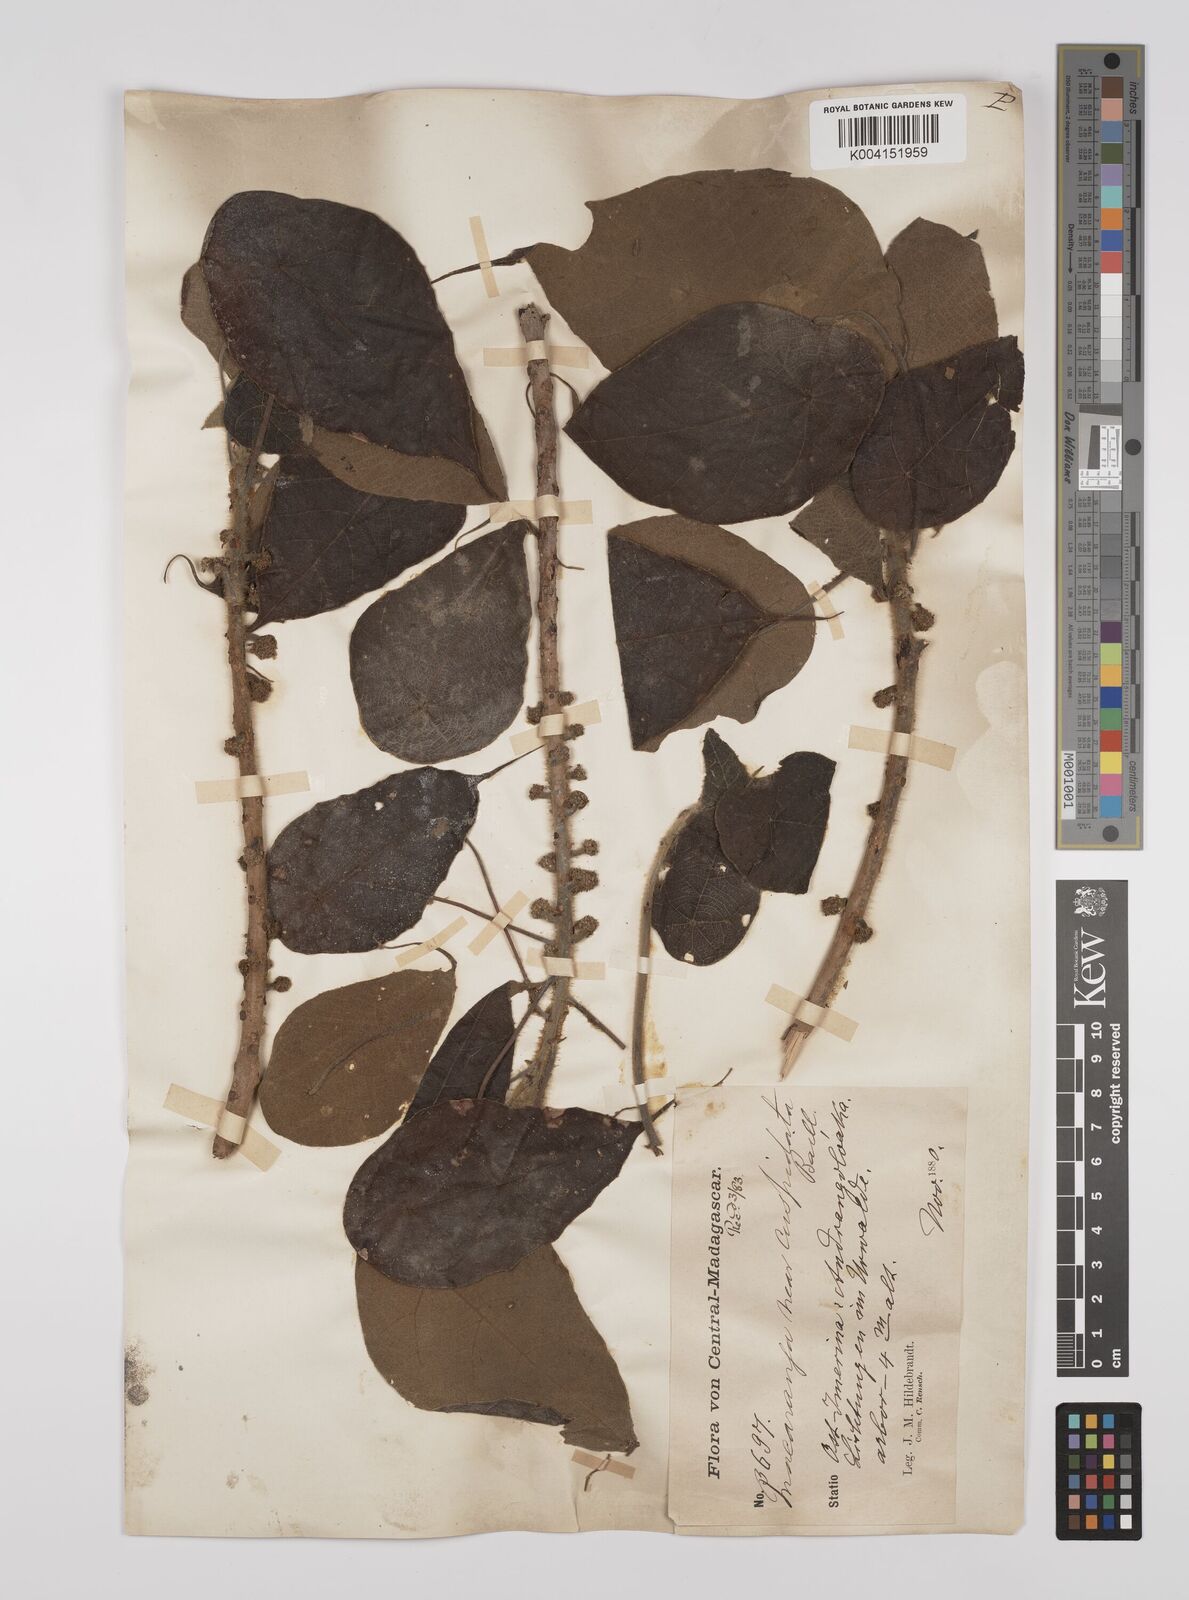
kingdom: Plantae
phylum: Tracheophyta
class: Magnoliopsida
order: Malpighiales
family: Euphorbiaceae
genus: Macaranga
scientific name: Macaranga cuspidata
